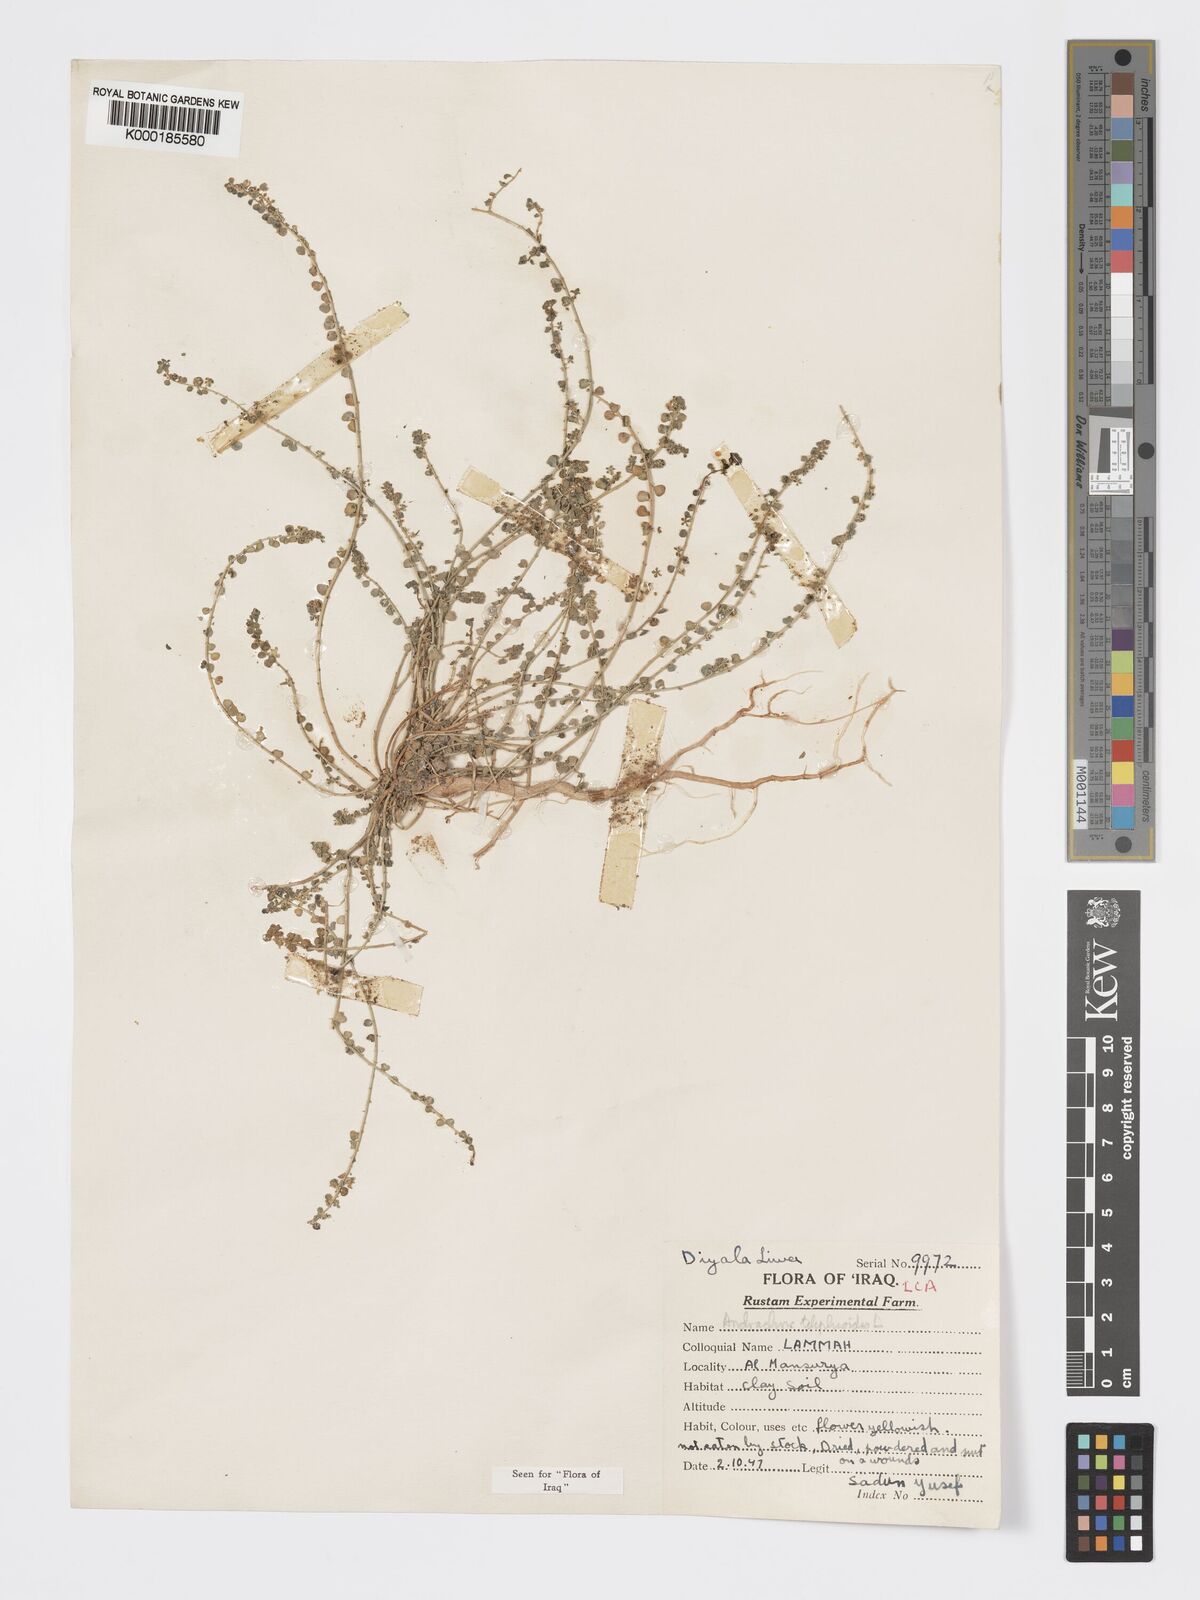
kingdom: Plantae
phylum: Tracheophyta
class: Magnoliopsida
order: Malpighiales
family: Phyllanthaceae
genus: Andrachne
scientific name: Andrachne telephioides
